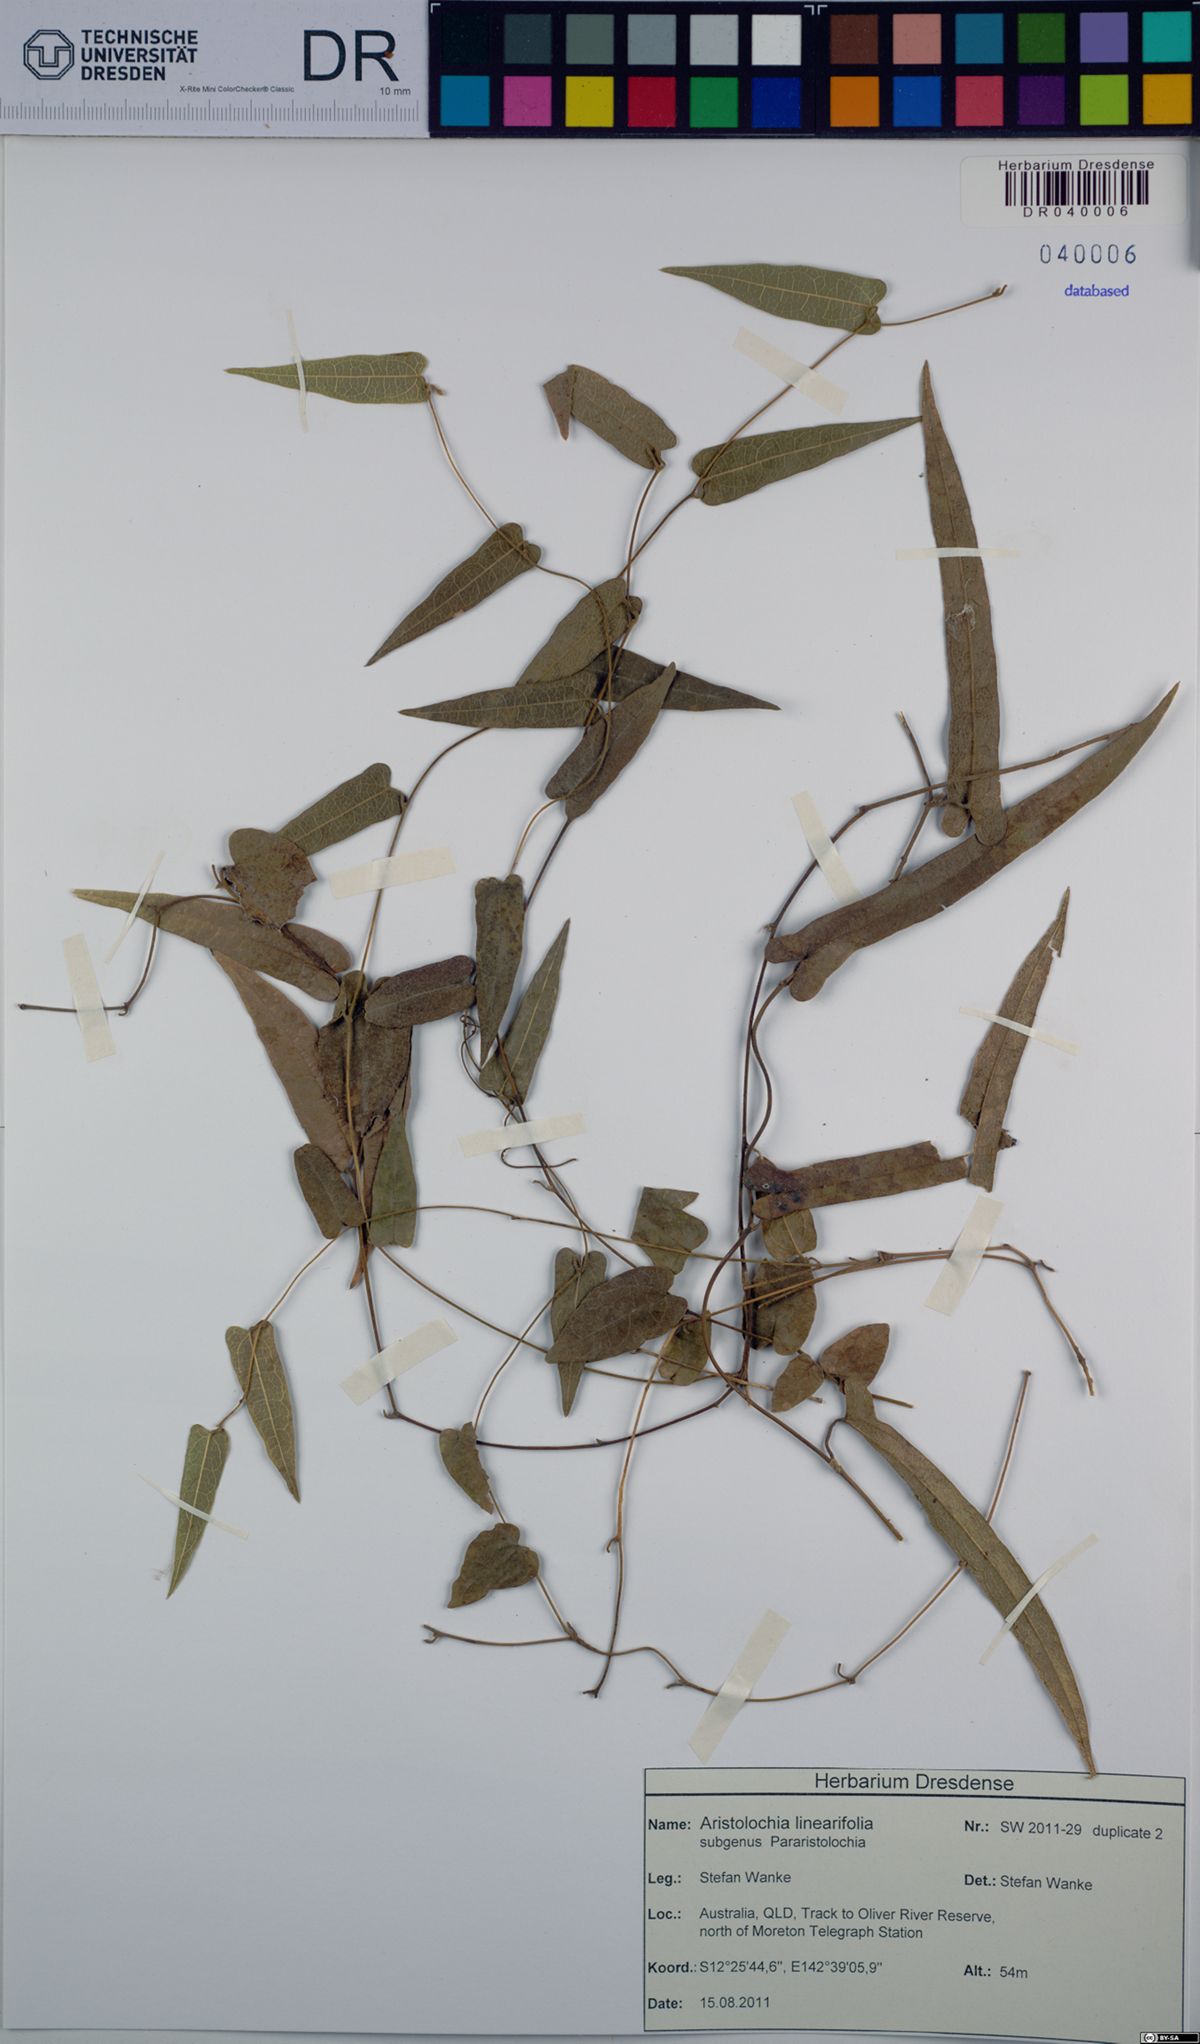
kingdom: Plantae
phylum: Tracheophyta
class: Magnoliopsida
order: Piperales
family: Aristolochiaceae
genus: Aristolochia
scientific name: Aristolochia linearifolia
